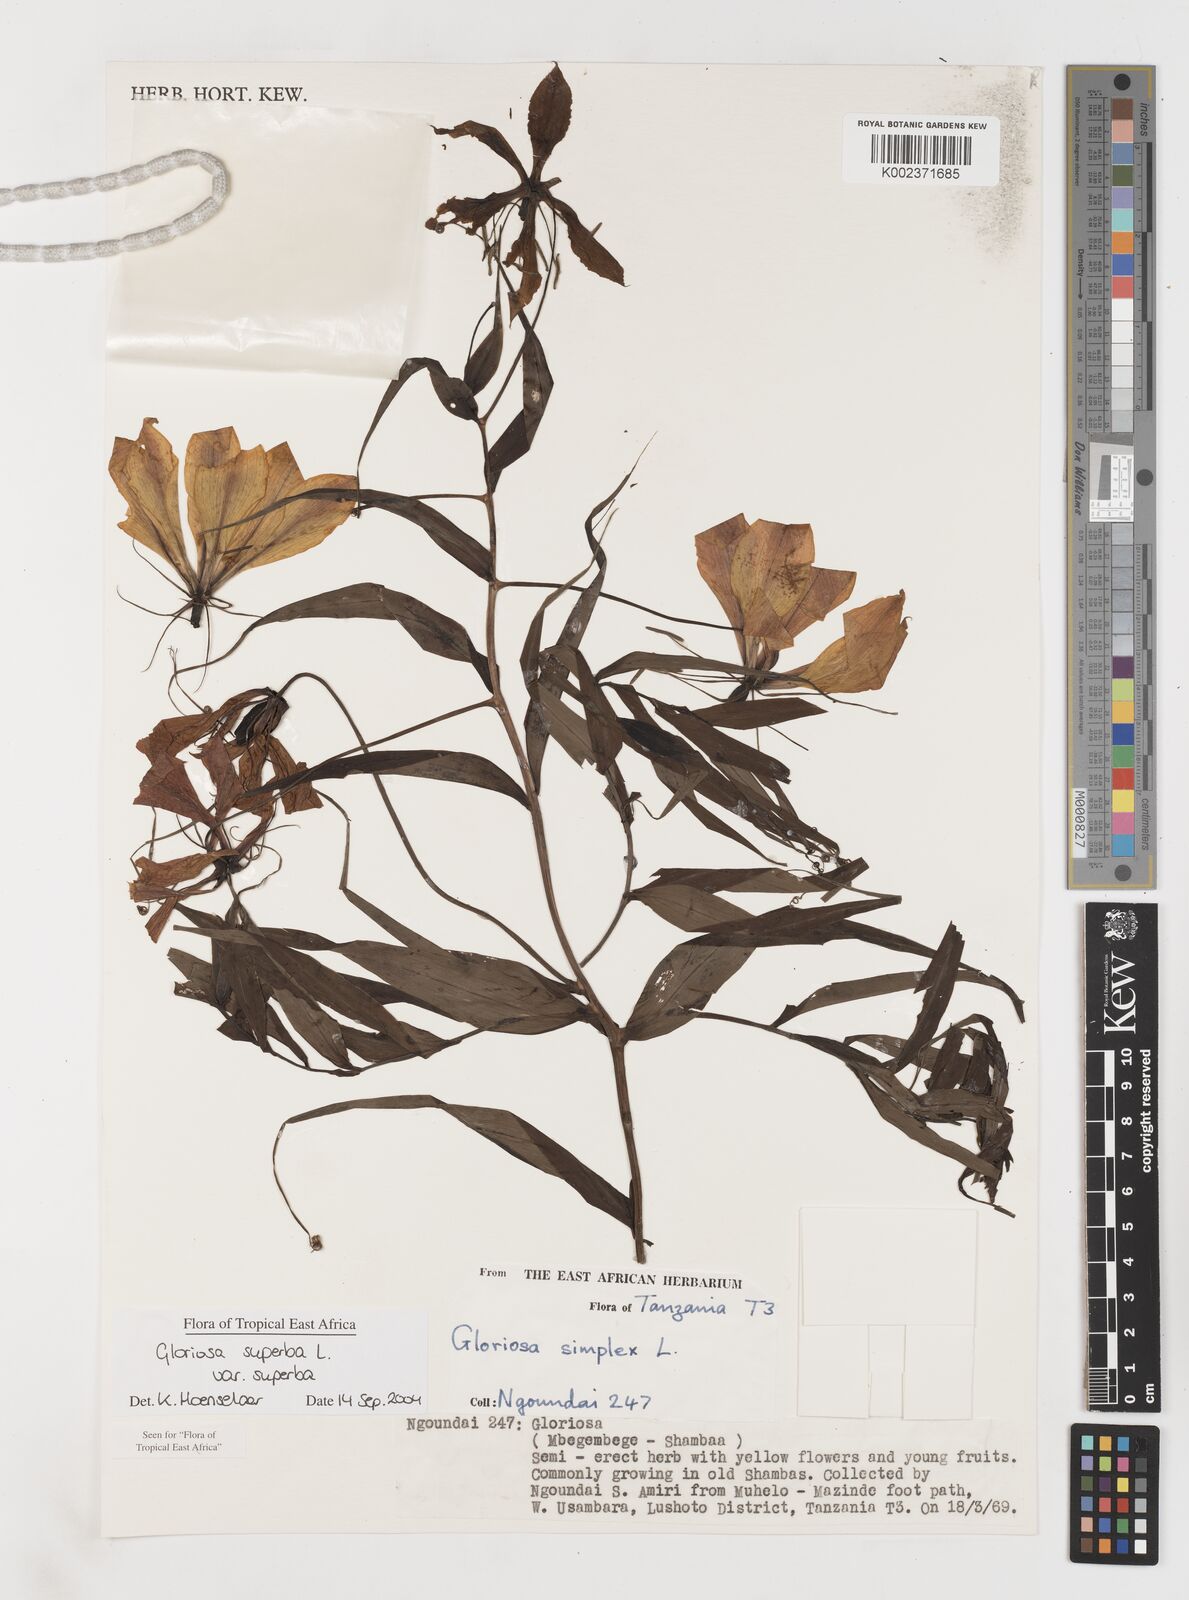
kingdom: Plantae
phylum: Tracheophyta
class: Liliopsida
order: Liliales
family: Colchicaceae
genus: Gloriosa
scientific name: Gloriosa simplex
